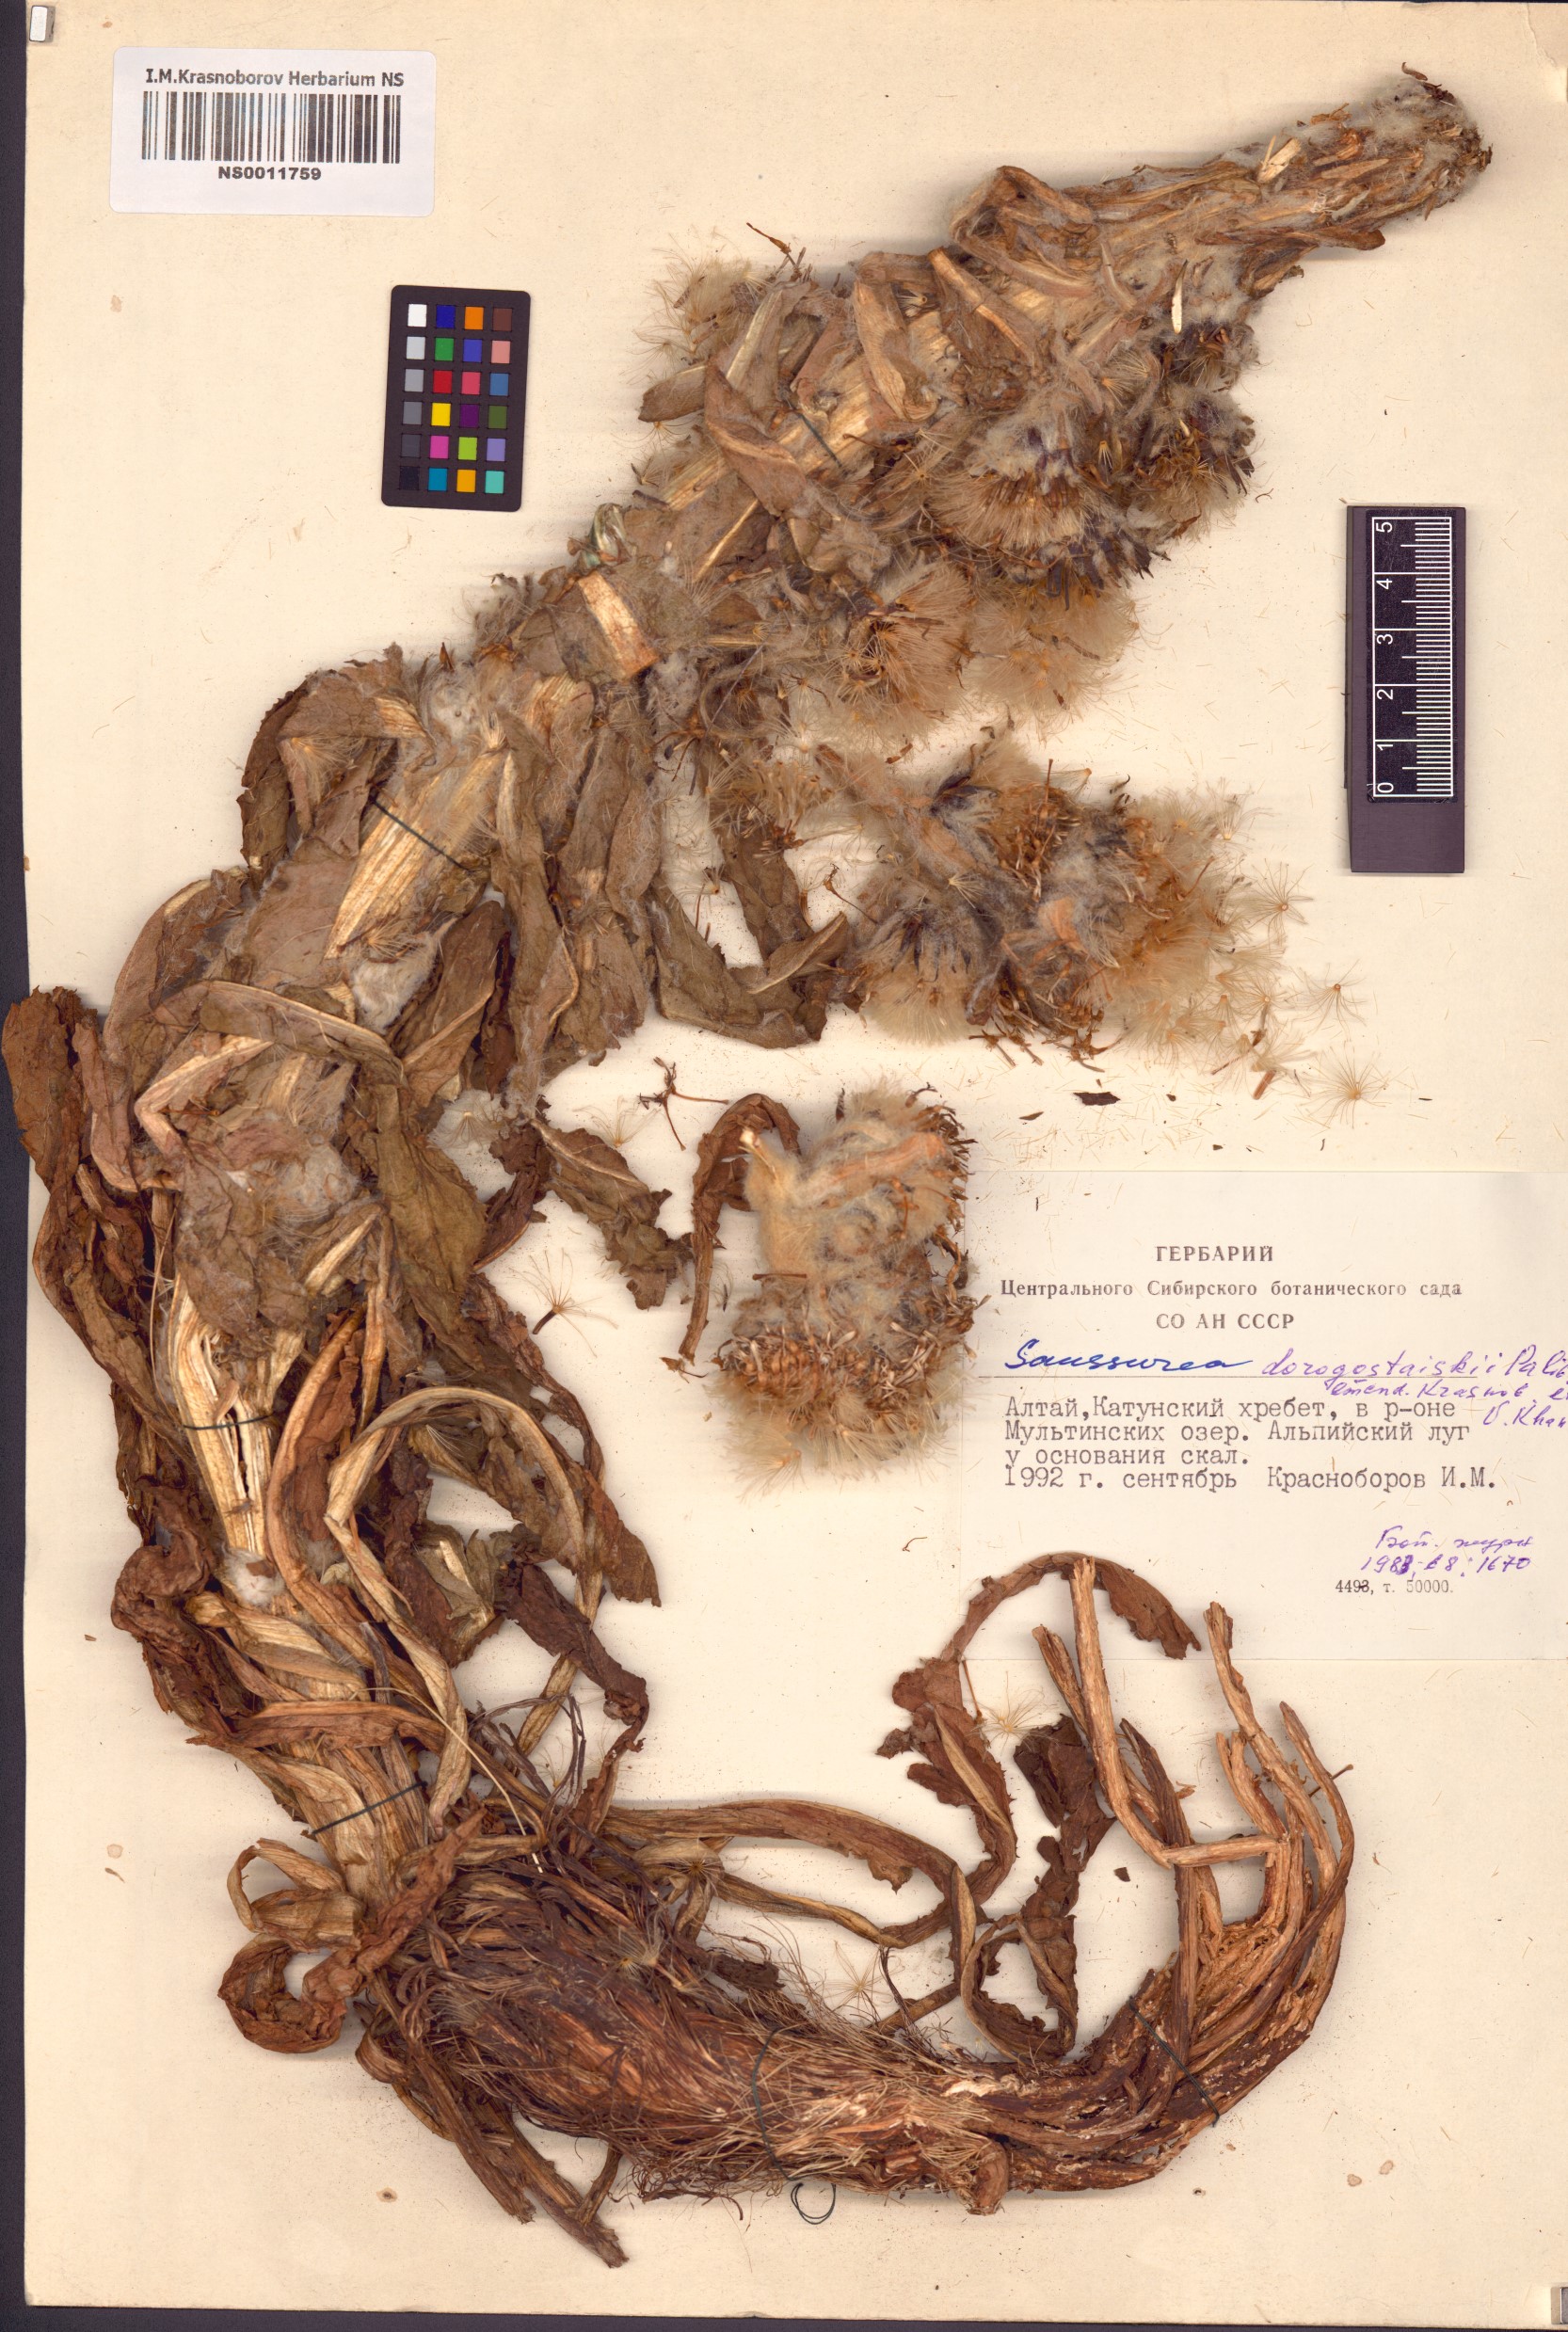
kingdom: Plantae
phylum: Tracheophyta
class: Magnoliopsida
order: Asterales
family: Asteraceae
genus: Saussurea
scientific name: Saussurea involucrata
